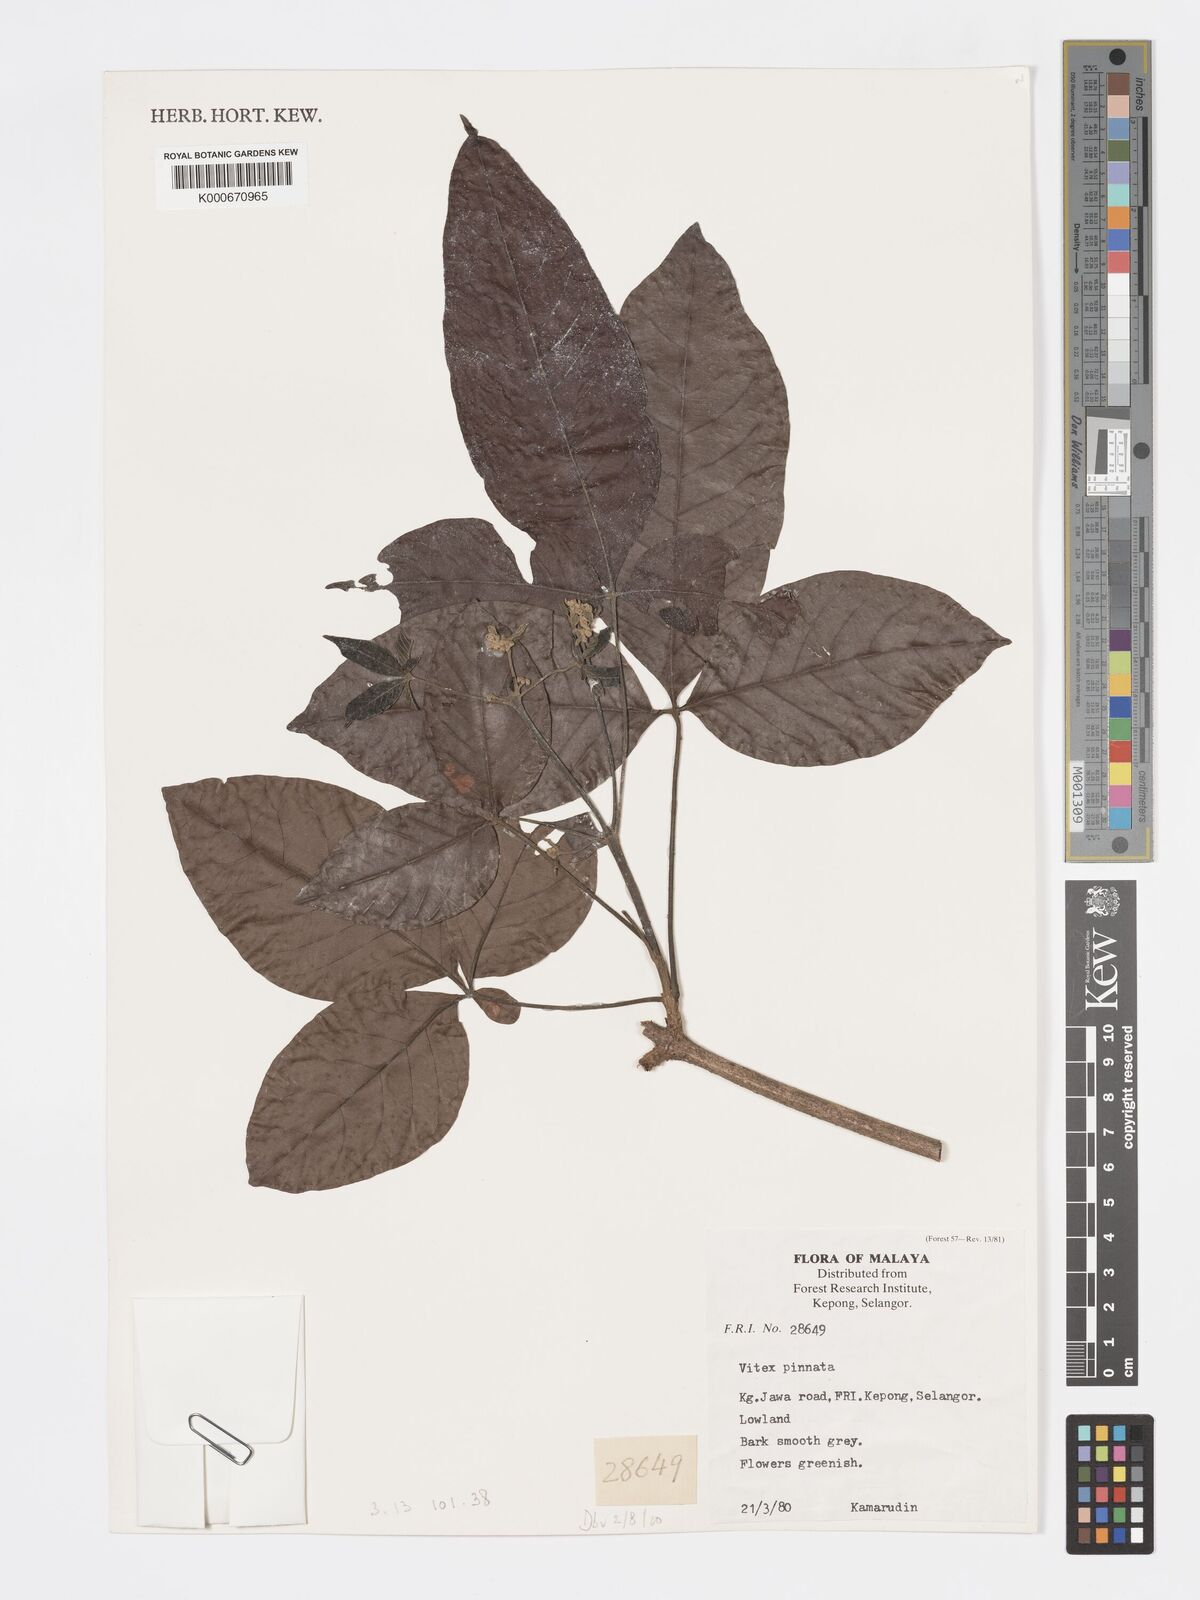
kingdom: Plantae
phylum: Tracheophyta
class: Magnoliopsida
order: Lamiales
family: Lamiaceae
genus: Vitex
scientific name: Vitex pinnata
